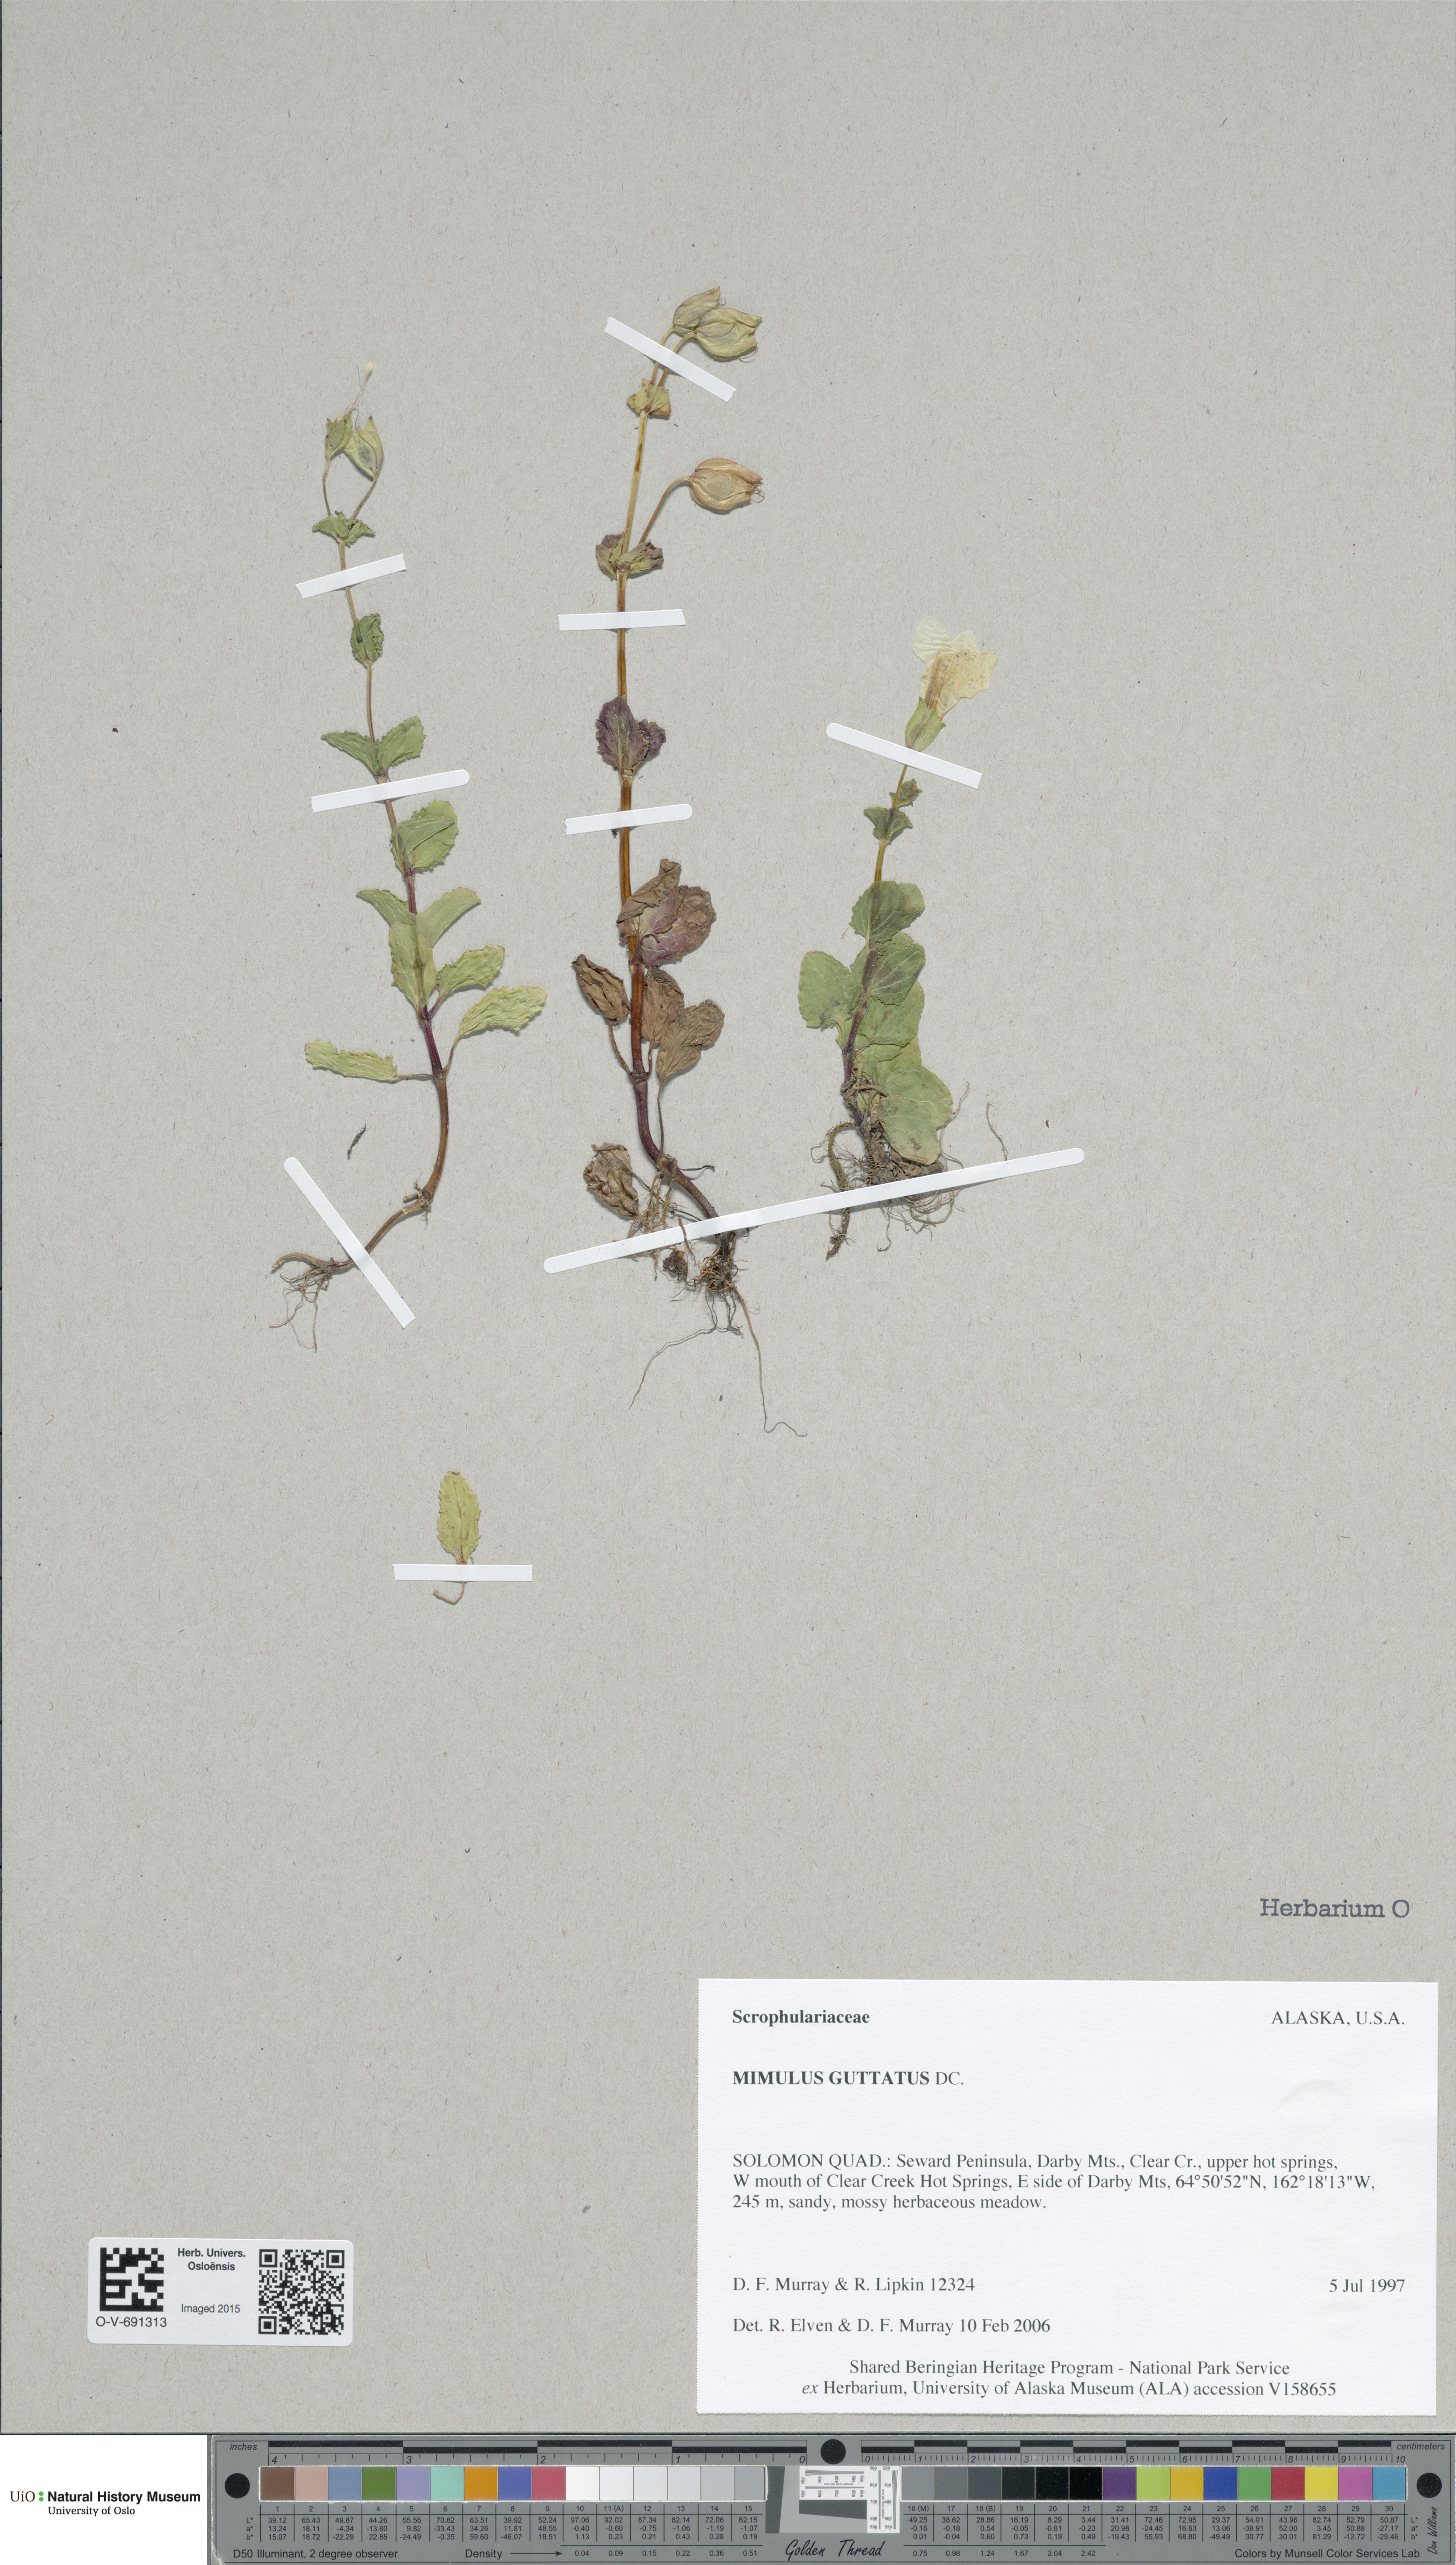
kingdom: Plantae
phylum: Tracheophyta
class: Magnoliopsida
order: Lamiales
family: Phrymaceae
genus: Erythranthe
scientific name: Erythranthe guttata
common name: Monkeyflower
